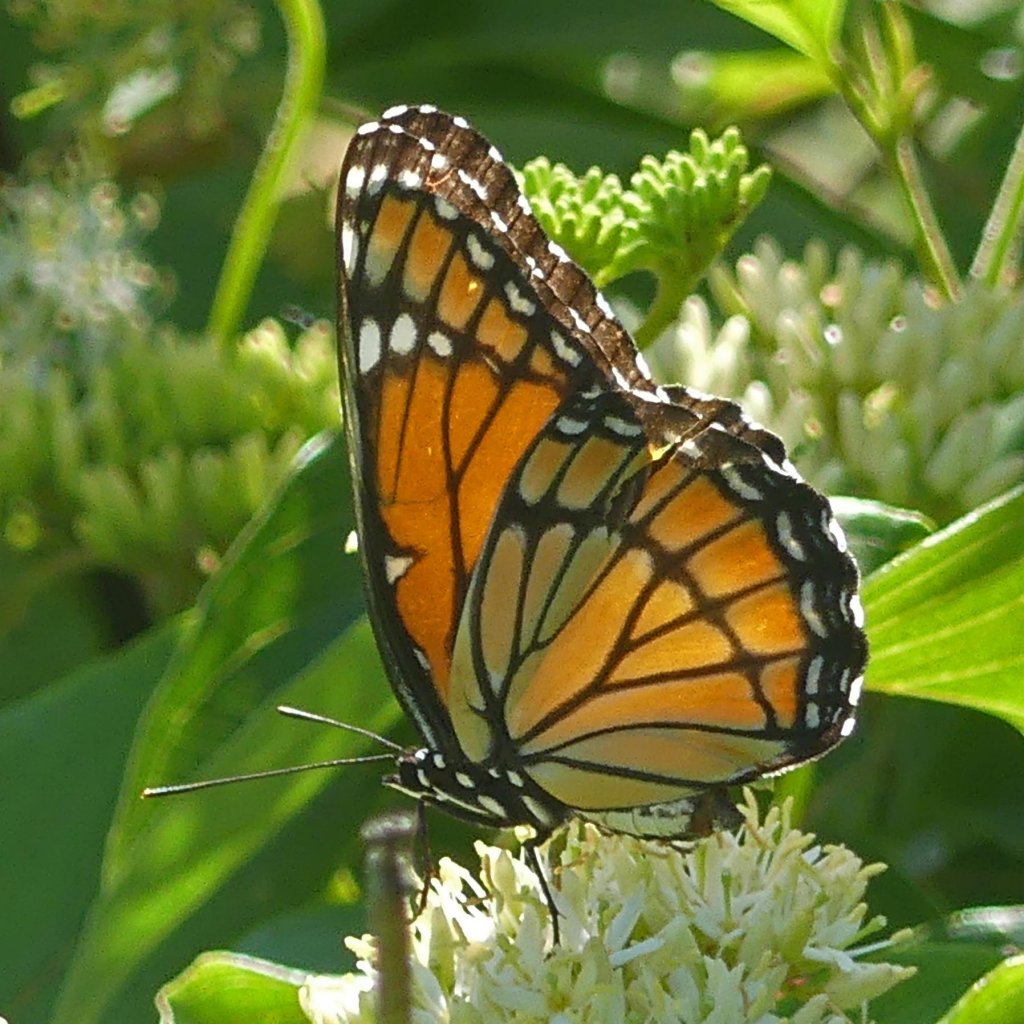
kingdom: Animalia
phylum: Arthropoda
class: Insecta
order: Lepidoptera
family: Nymphalidae
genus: Limenitis
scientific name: Limenitis archippus
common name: Viceroy
